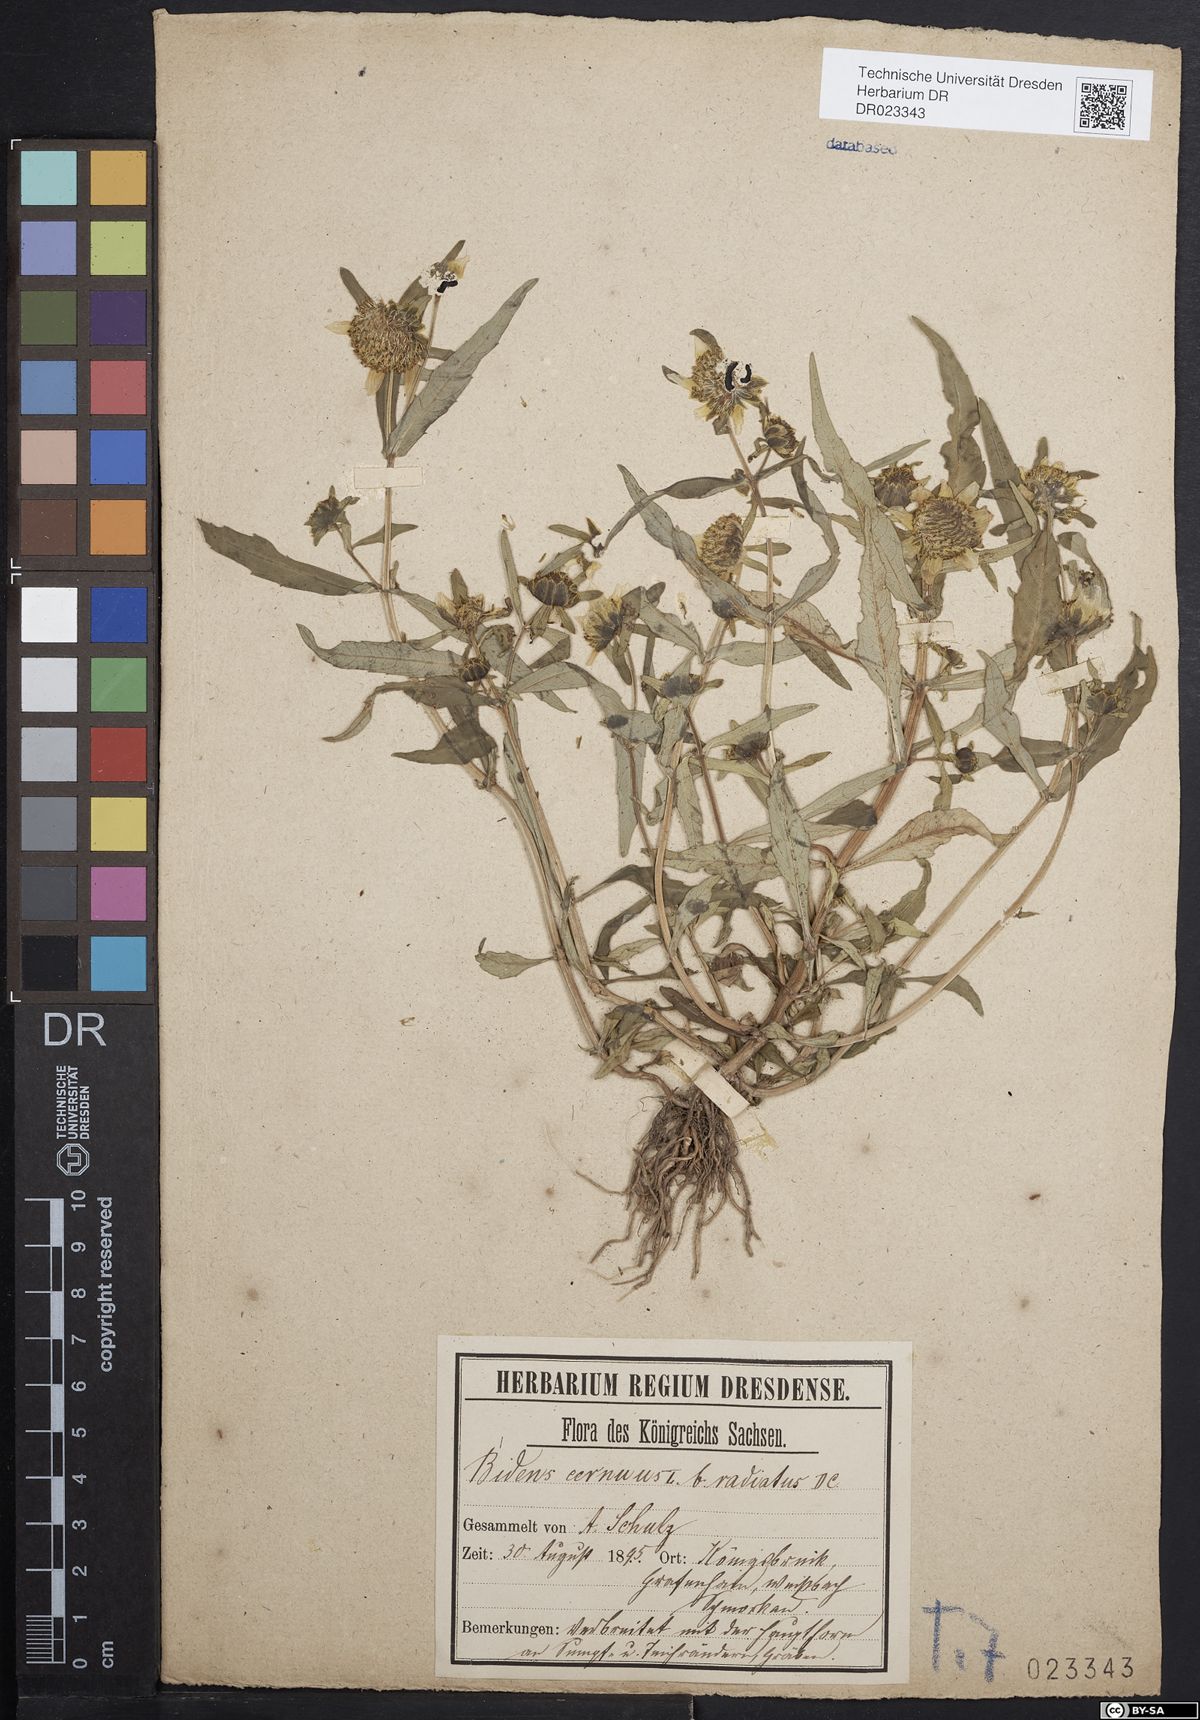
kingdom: Plantae
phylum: Tracheophyta
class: Magnoliopsida
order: Asterales
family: Asteraceae
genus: Bidens
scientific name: Bidens cernua
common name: Nodding bur-marigold
